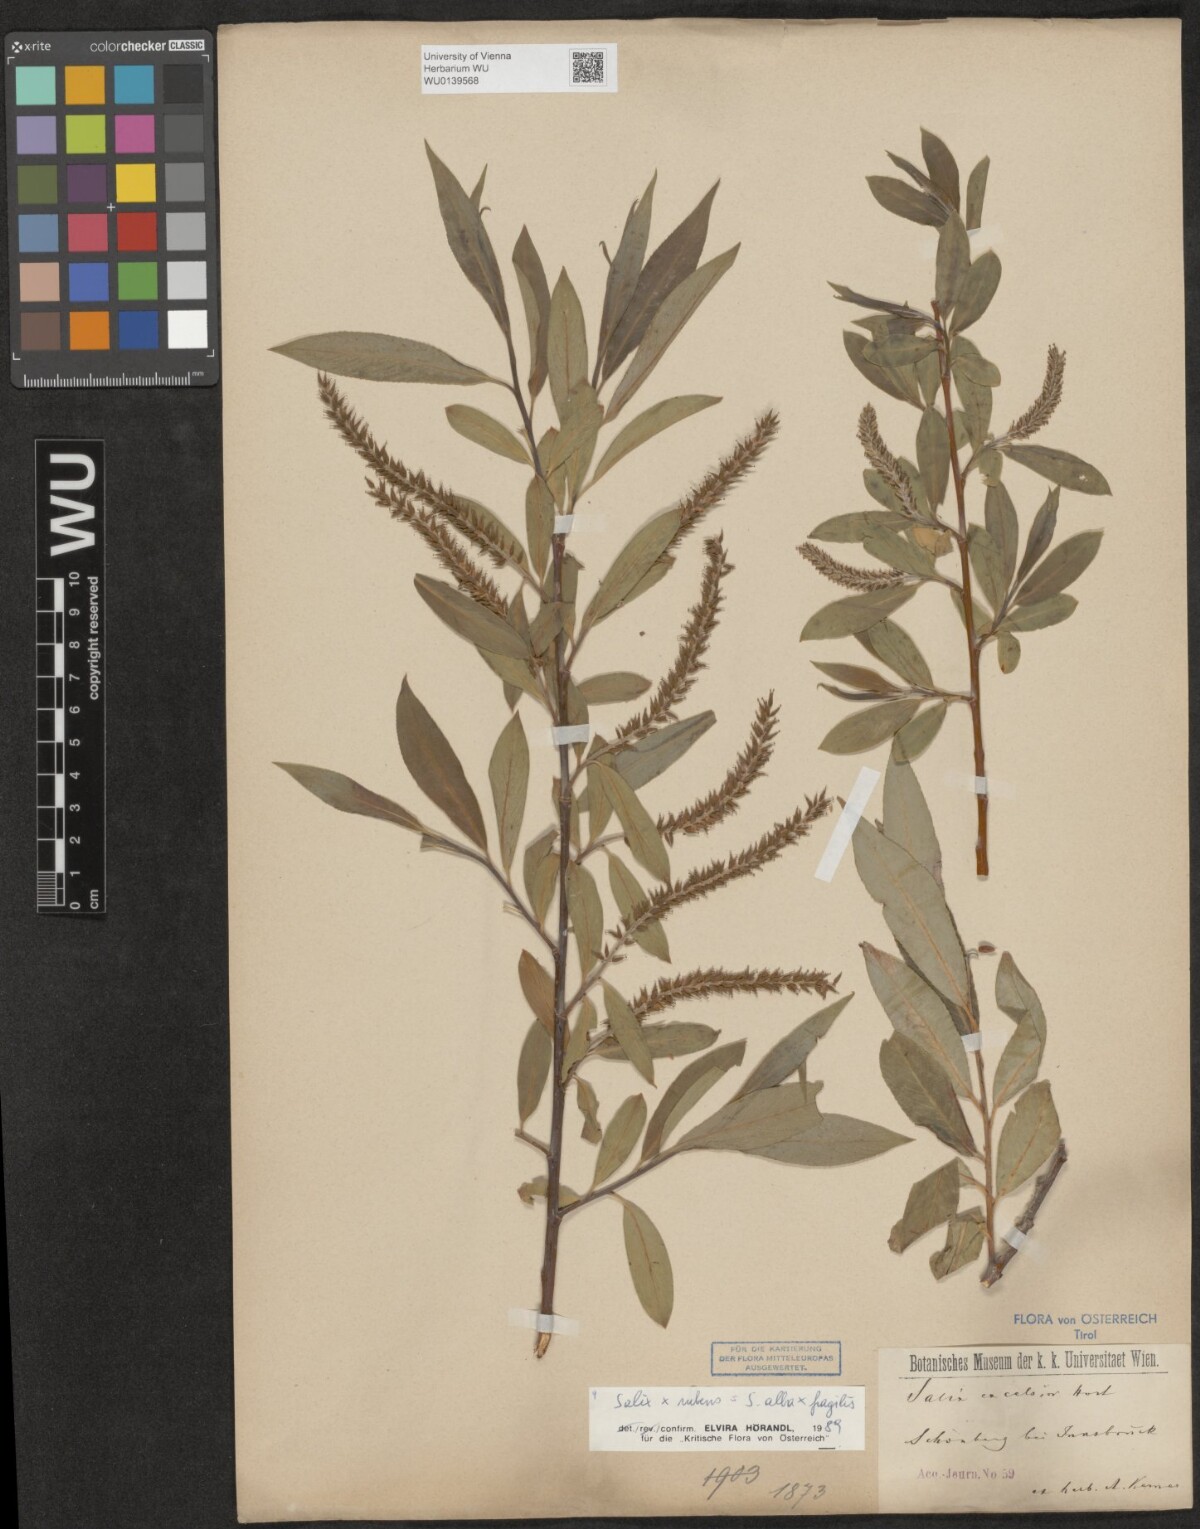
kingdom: Plantae
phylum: Tracheophyta
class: Magnoliopsida
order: Malpighiales
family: Salicaceae
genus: Salix
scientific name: Salix rubens
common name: Hybrid crack willow
